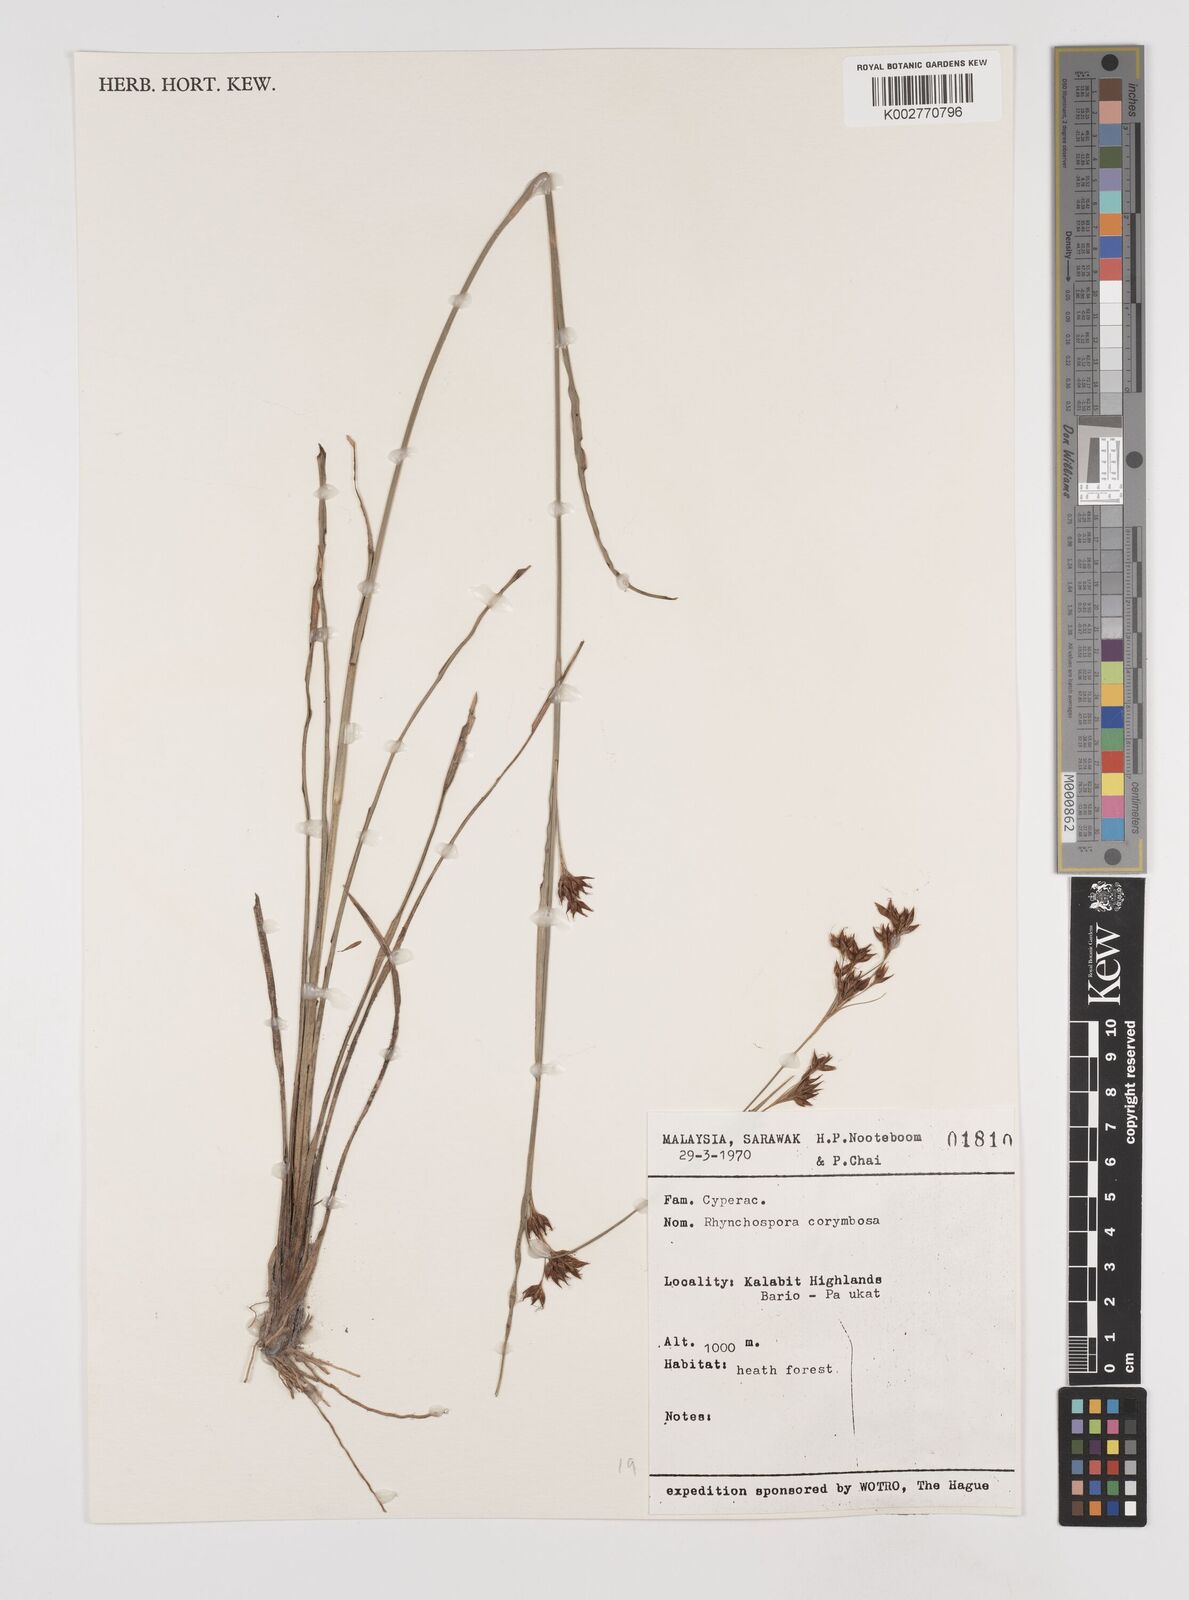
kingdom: Plantae
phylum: Tracheophyta
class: Liliopsida
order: Poales
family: Cyperaceae
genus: Rhynchospora
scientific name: Rhynchospora corymbosa
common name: Golden beak sedge
